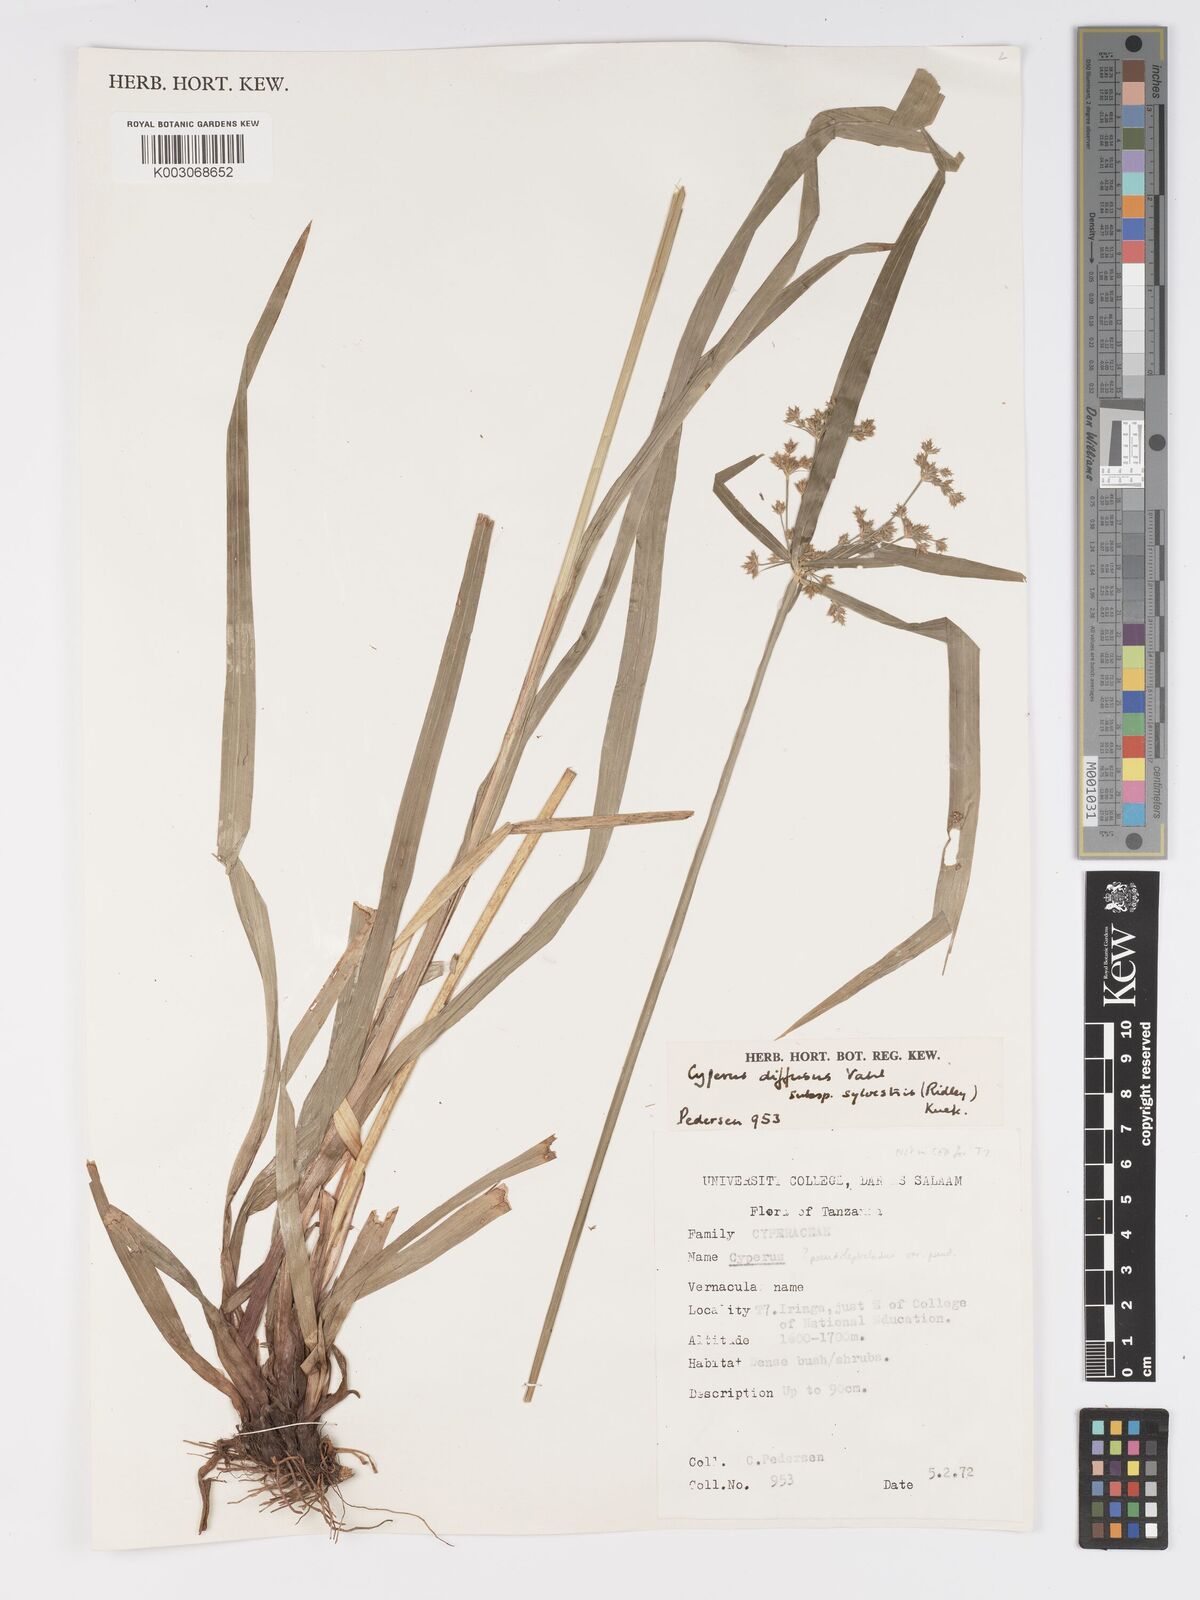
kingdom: Plantae
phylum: Tracheophyta
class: Liliopsida
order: Poales
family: Cyperaceae
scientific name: Cyperaceae
